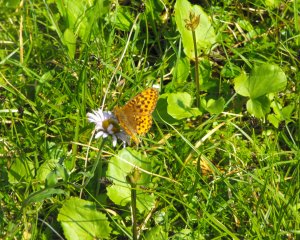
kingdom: Animalia
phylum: Arthropoda
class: Insecta
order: Lepidoptera
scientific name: Lepidoptera
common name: Butterflies
